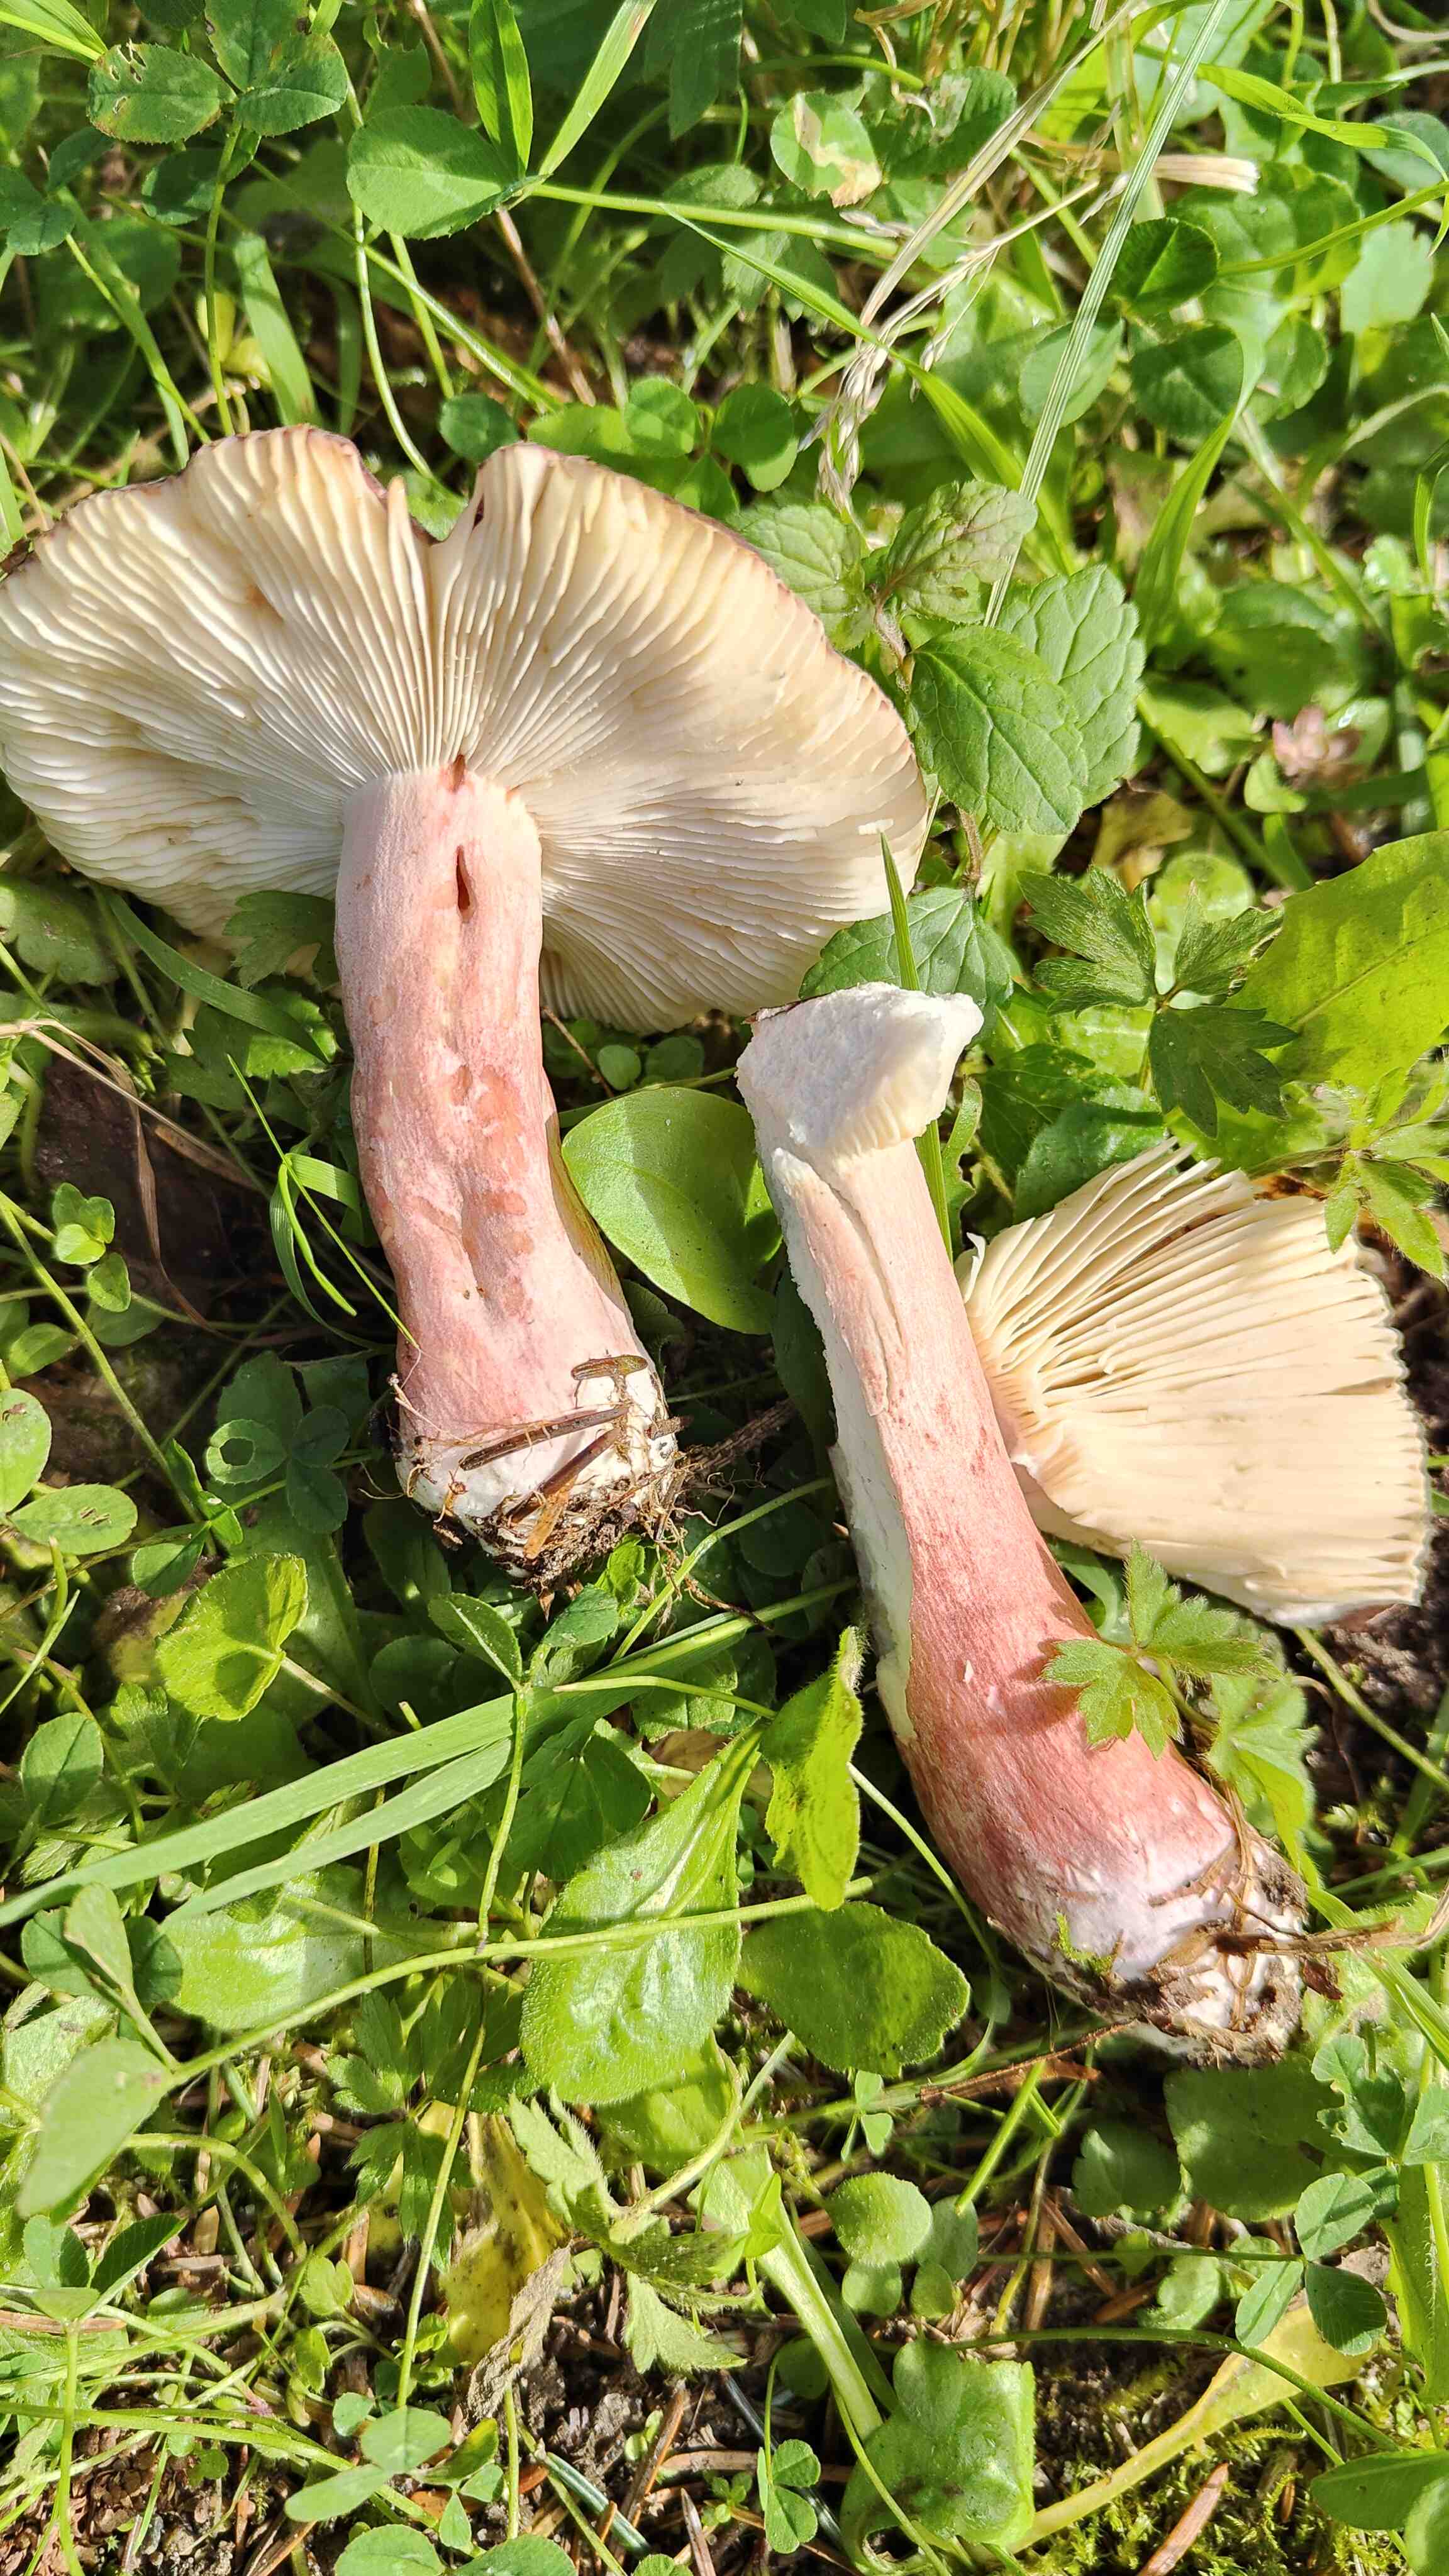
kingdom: Fungi
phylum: Basidiomycota
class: Agaricomycetes
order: Russulales
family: Russulaceae
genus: Russula
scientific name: Russula queletii
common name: Quélets skørhat
